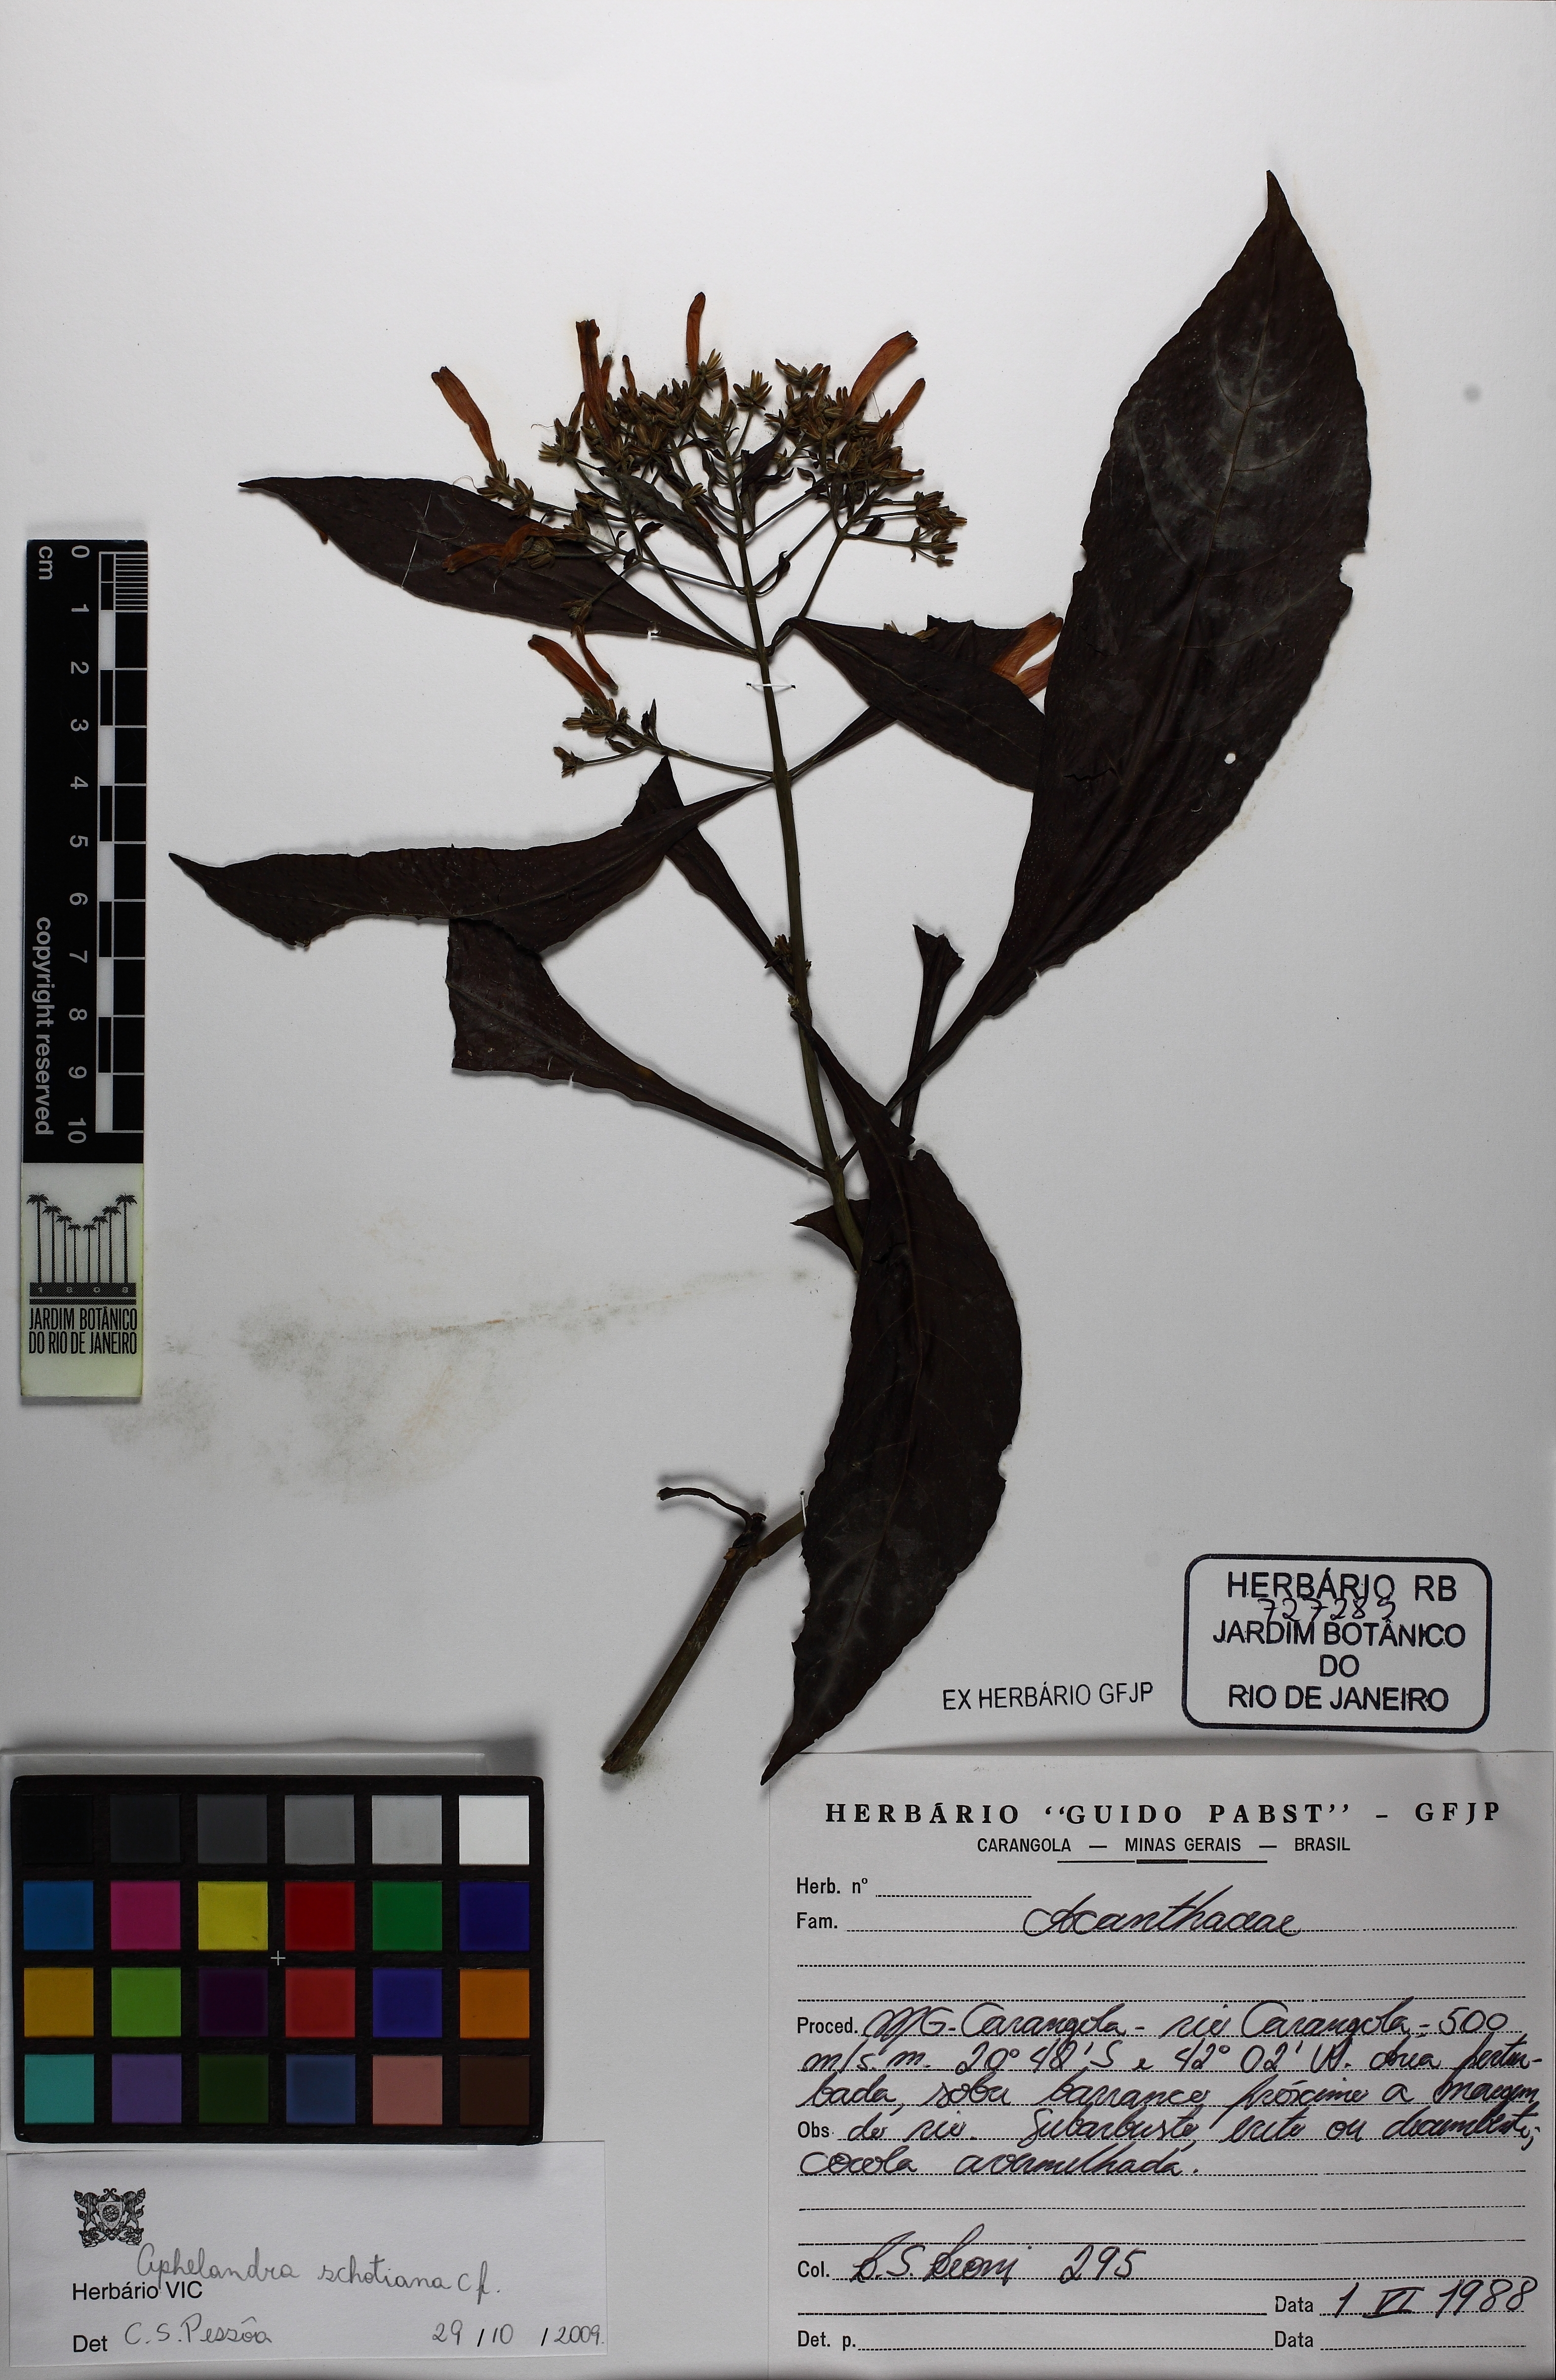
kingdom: Plantae
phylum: Tracheophyta
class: Magnoliopsida
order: Lamiales
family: Acanthaceae
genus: Aphelandra
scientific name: Aphelandra schottiana
